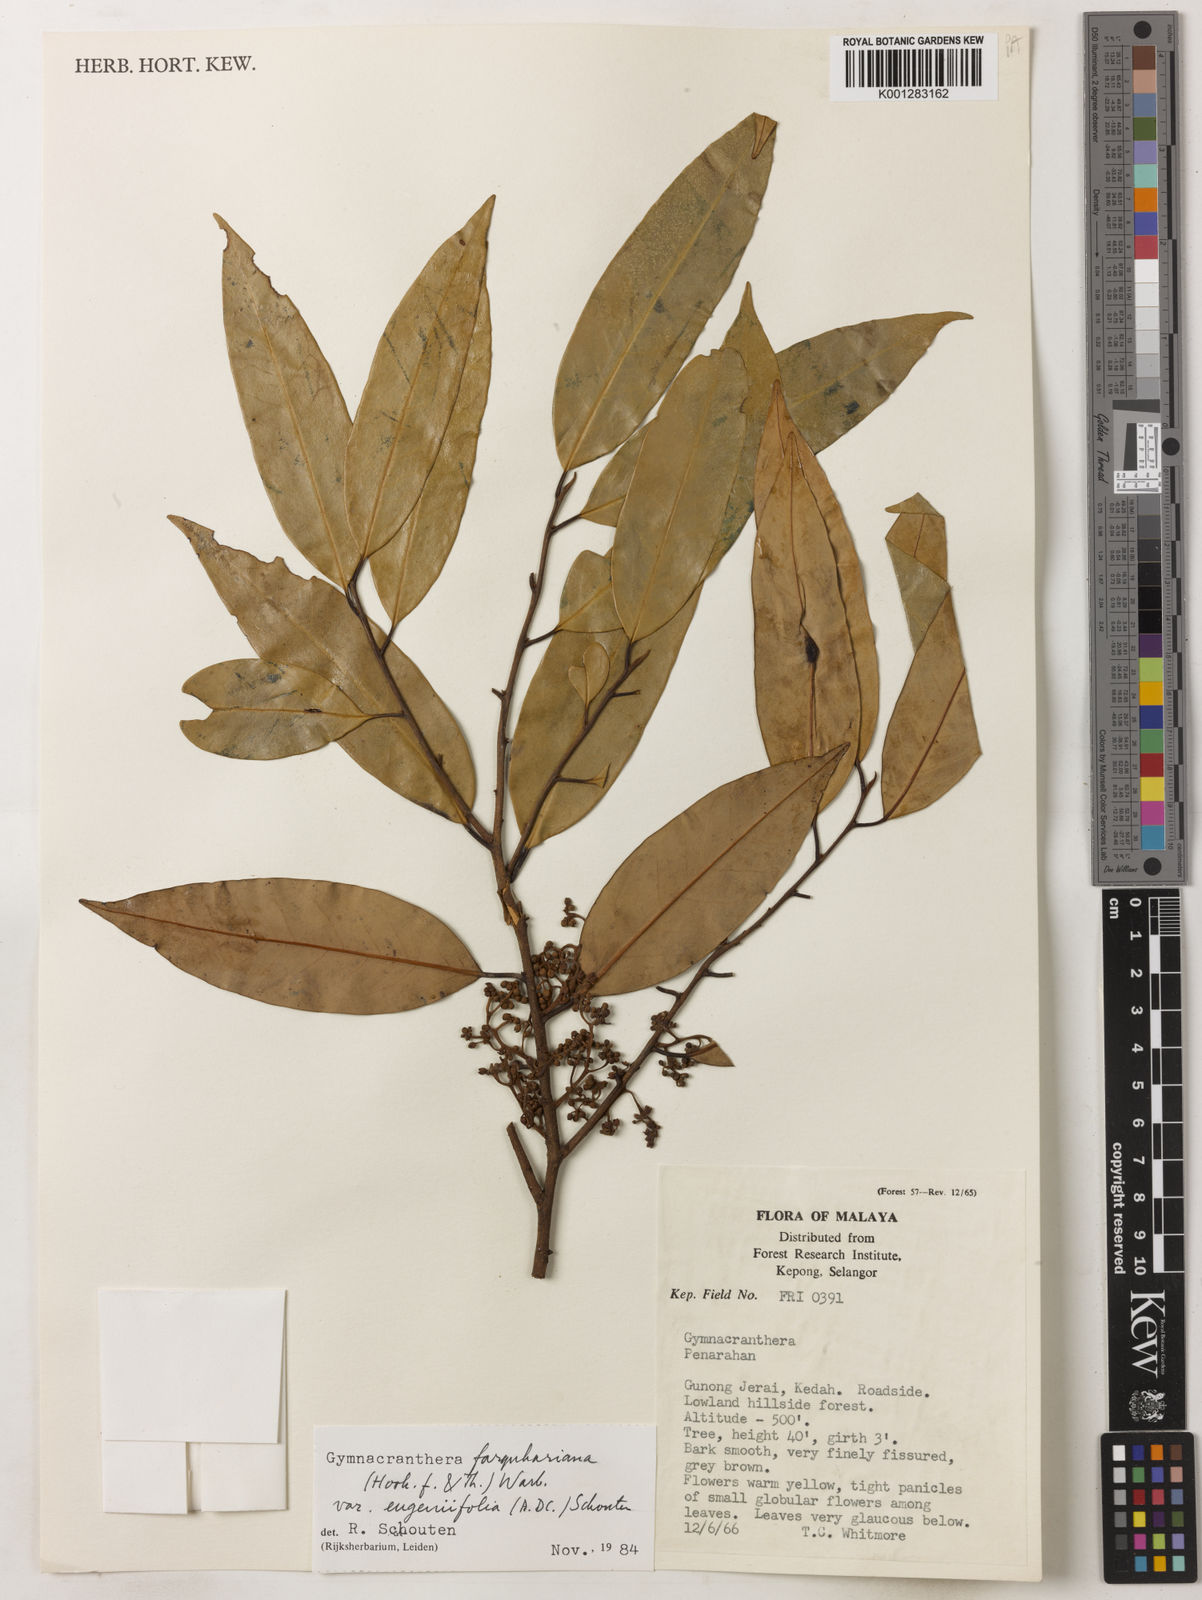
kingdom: Plantae
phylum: Tracheophyta
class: Magnoliopsida
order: Magnoliales
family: Myristicaceae
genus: Gymnacranthera
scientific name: Gymnacranthera farquhariana
